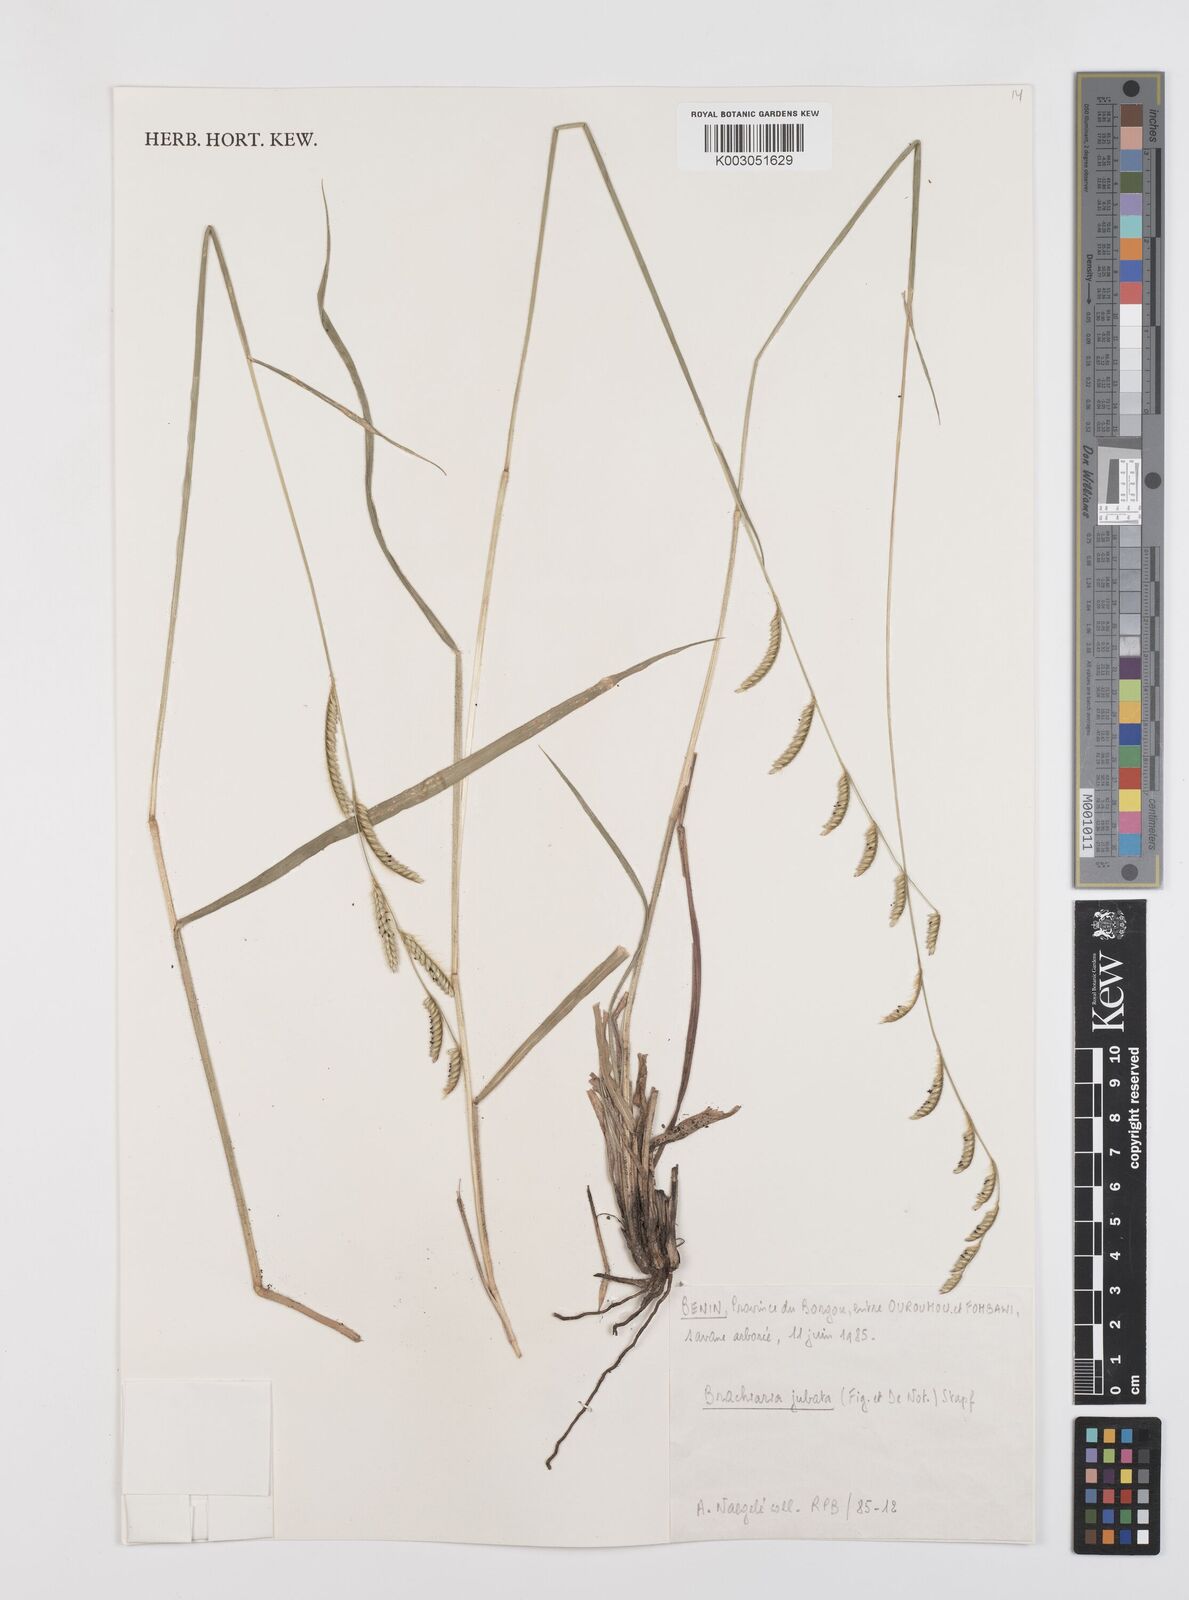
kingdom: Plantae
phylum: Tracheophyta
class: Liliopsida
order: Poales
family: Poaceae
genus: Urochloa
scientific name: Urochloa jubata
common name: Buffalograss
